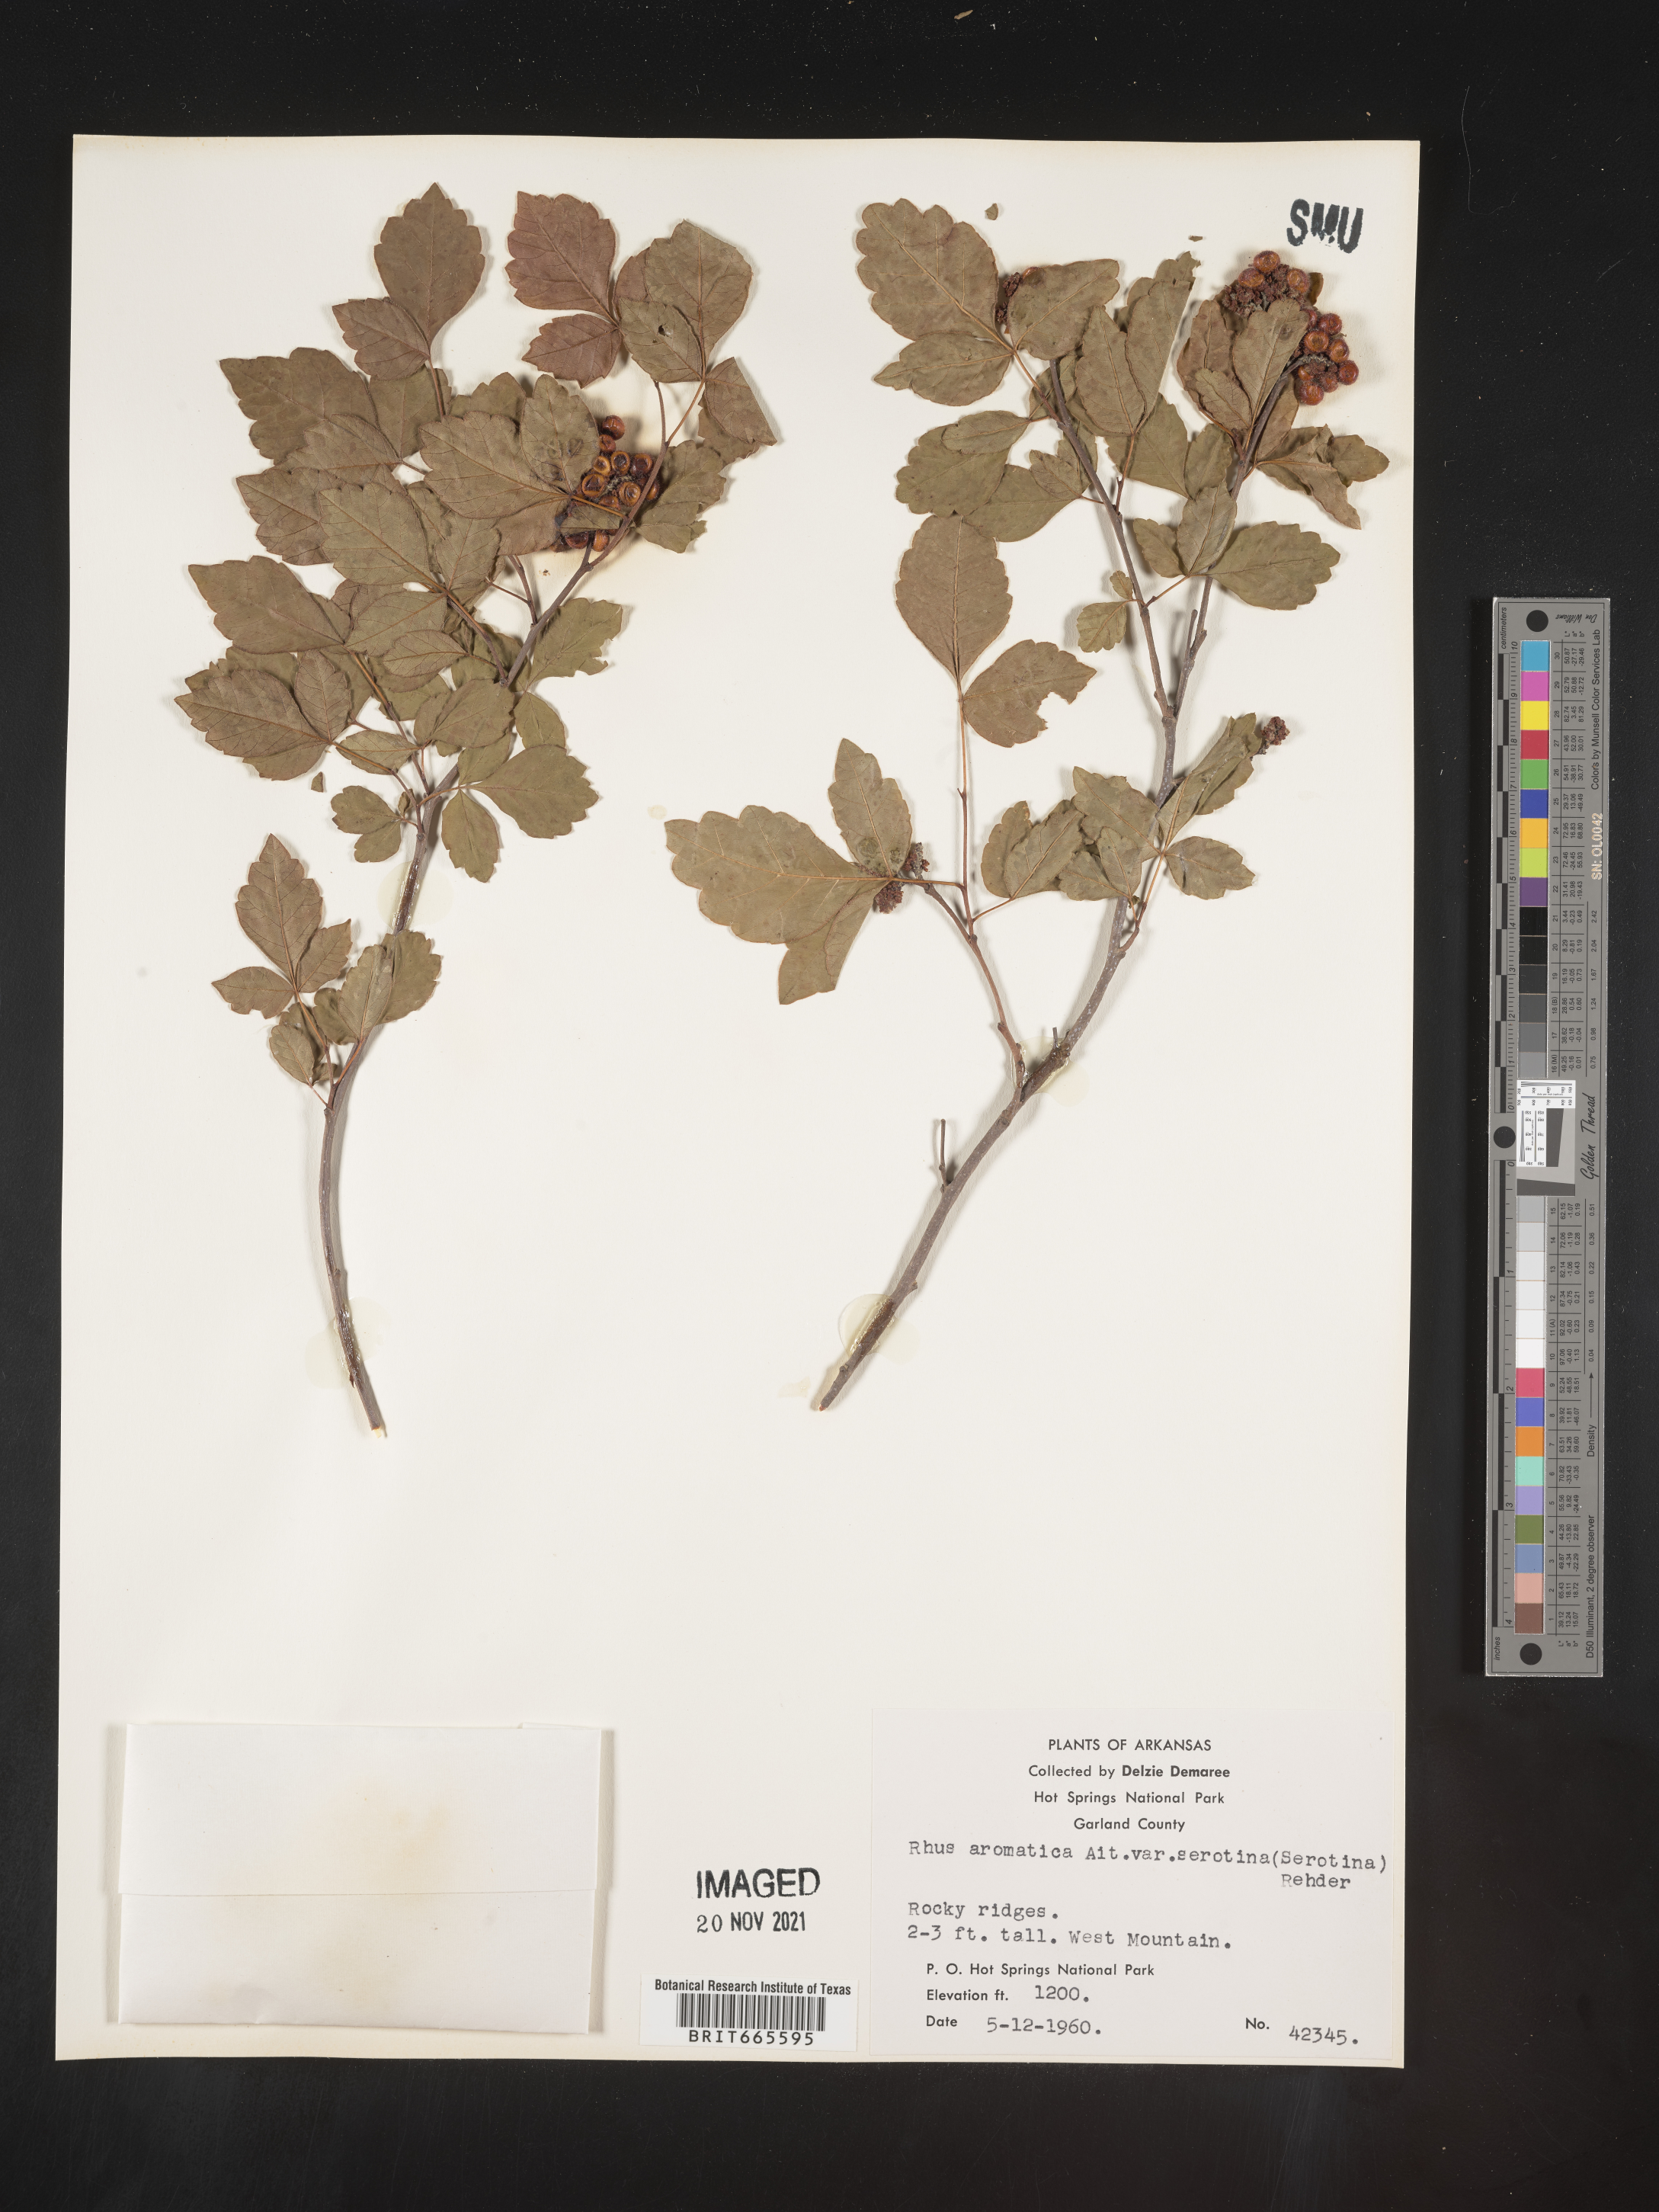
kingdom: Plantae
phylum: Tracheophyta
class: Magnoliopsida
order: Sapindales
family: Anacardiaceae
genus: Rhus
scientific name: Rhus aromatica
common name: Aromatic sumac
